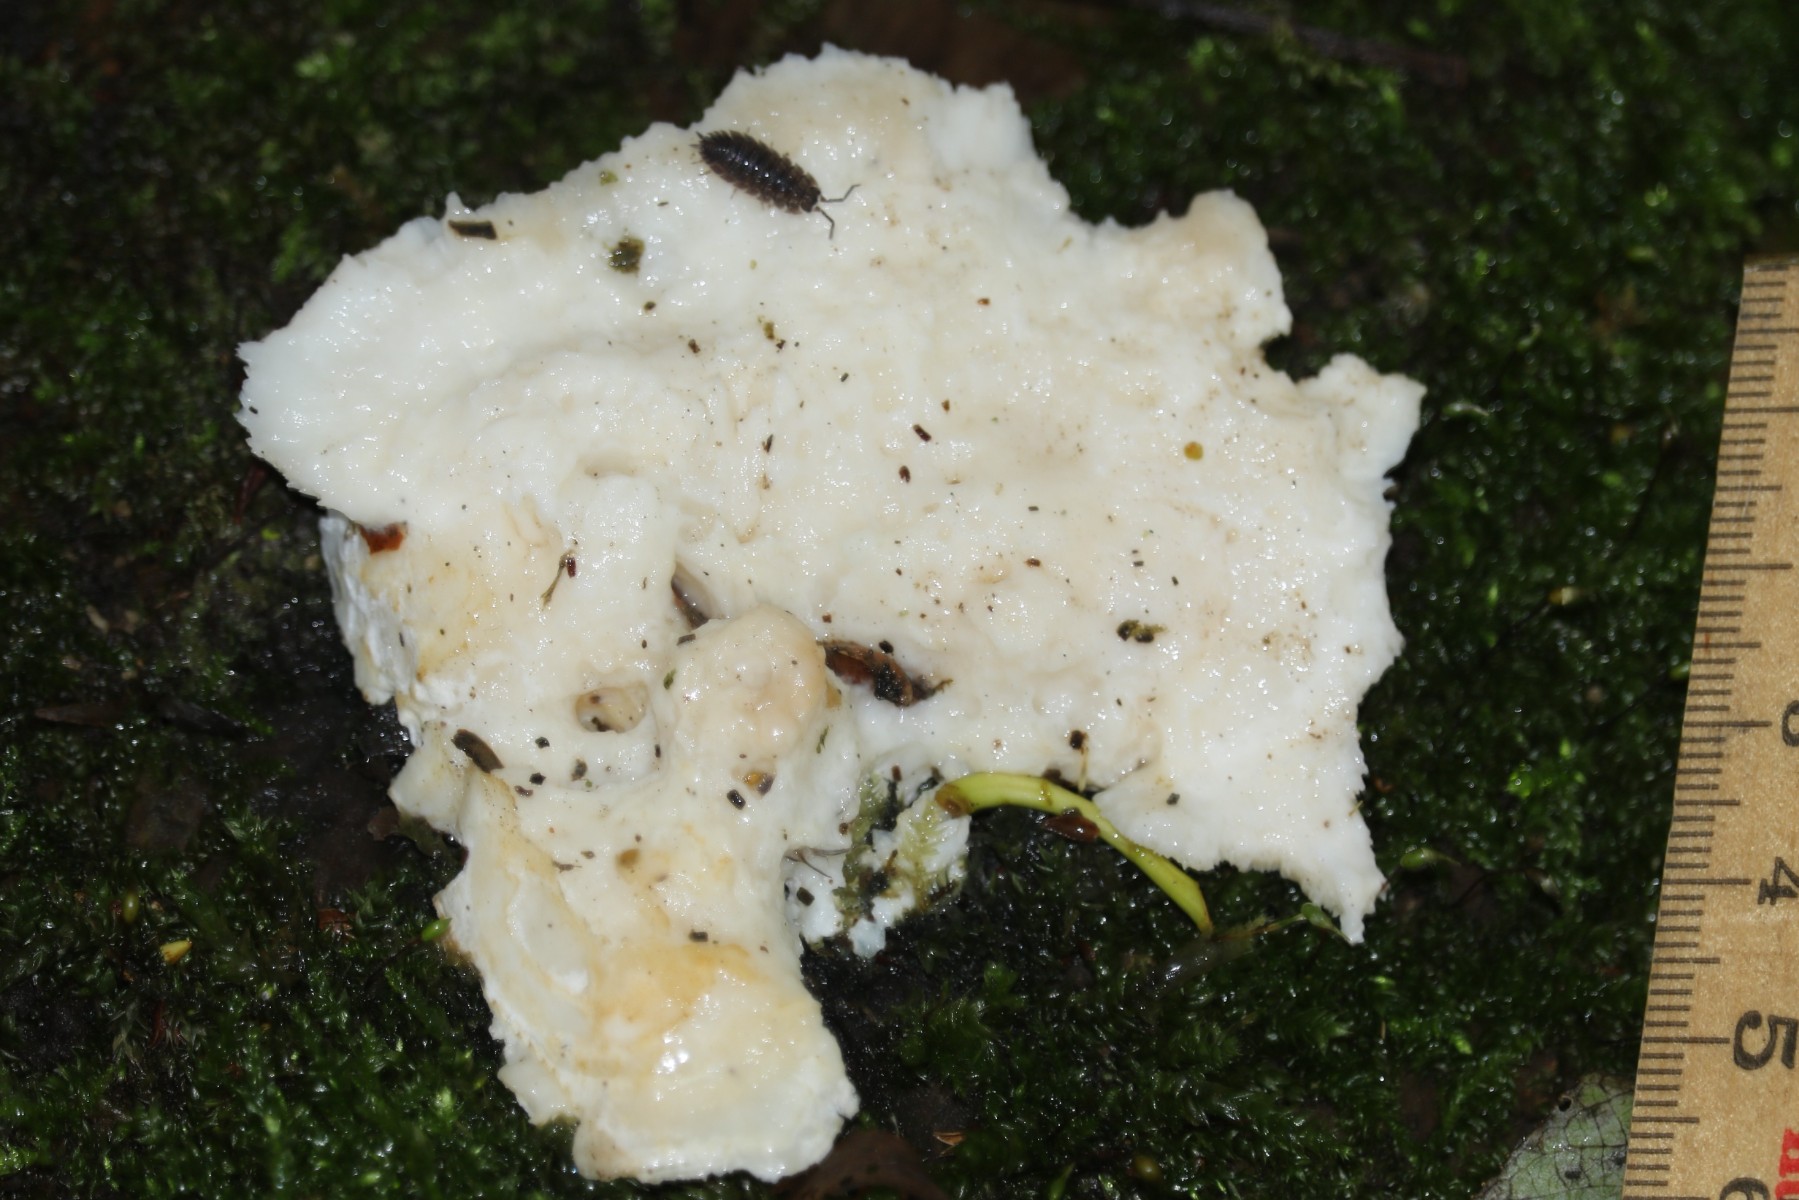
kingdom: Fungi
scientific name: Fungi
